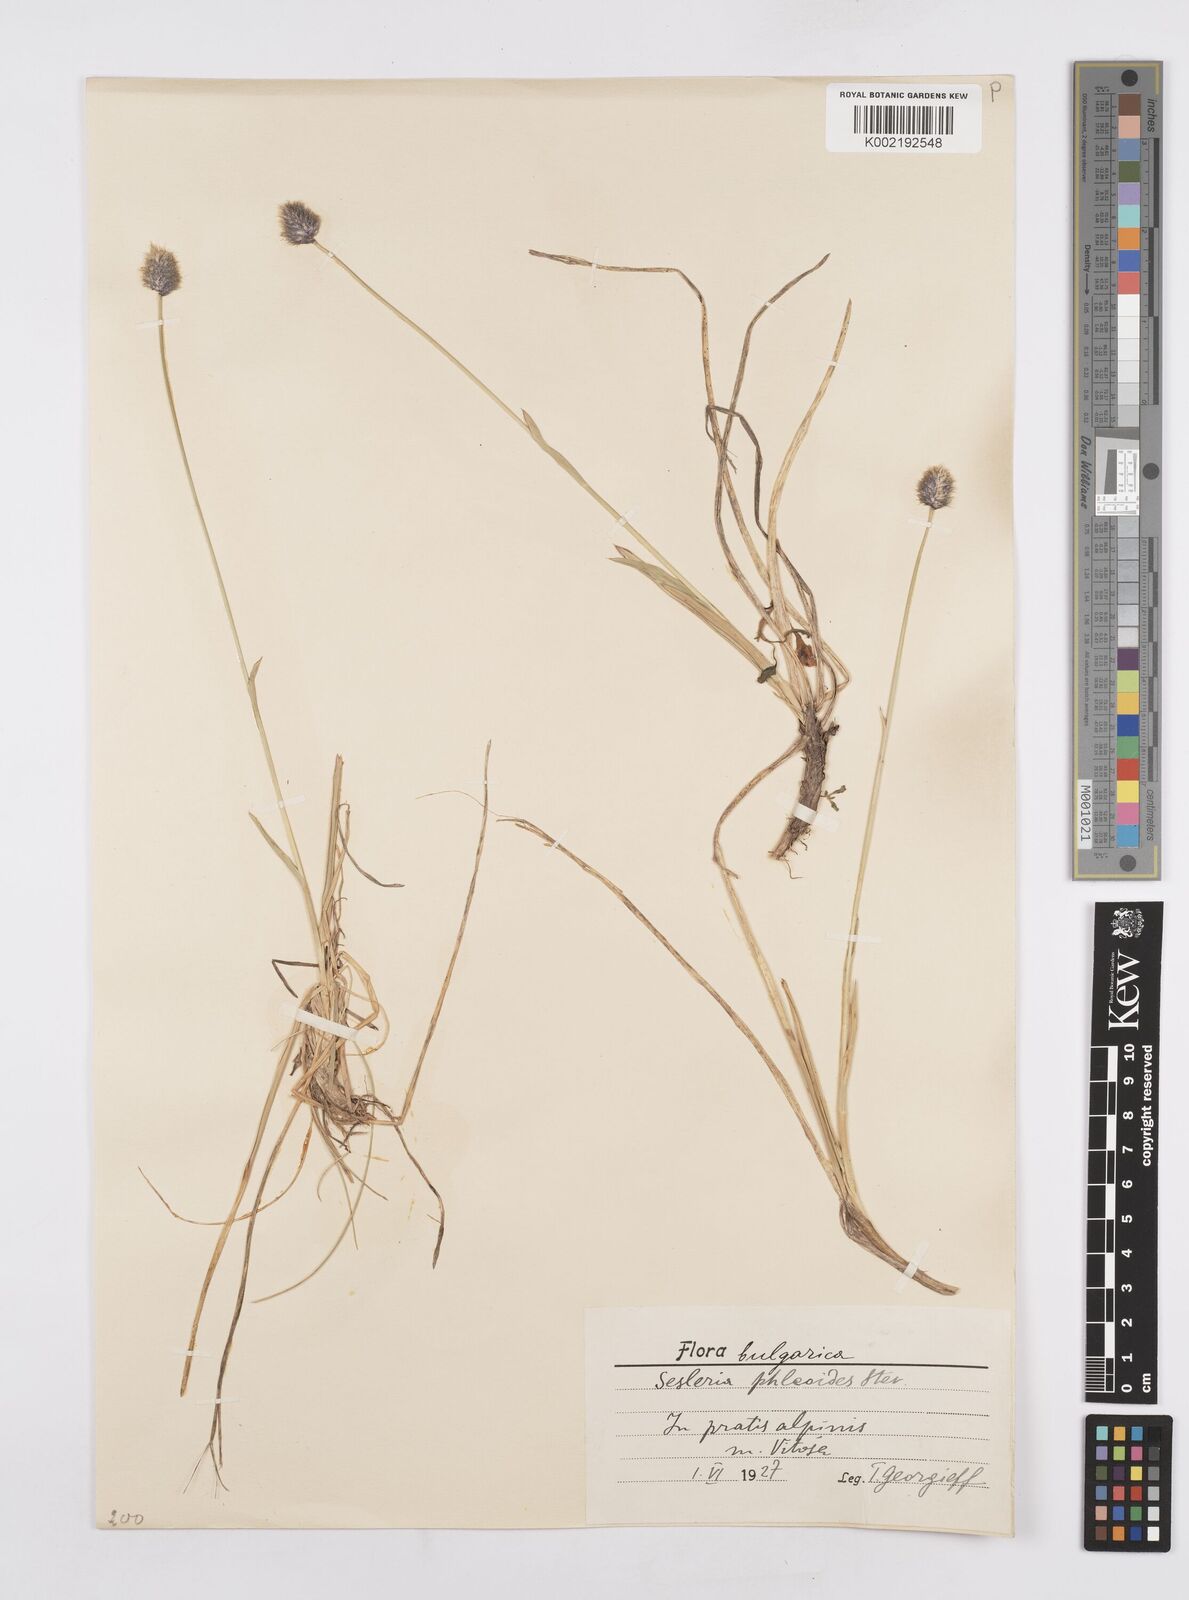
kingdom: Plantae
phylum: Tracheophyta
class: Liliopsida
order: Poales
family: Poaceae
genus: Sesleria
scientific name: Sesleria comosa
